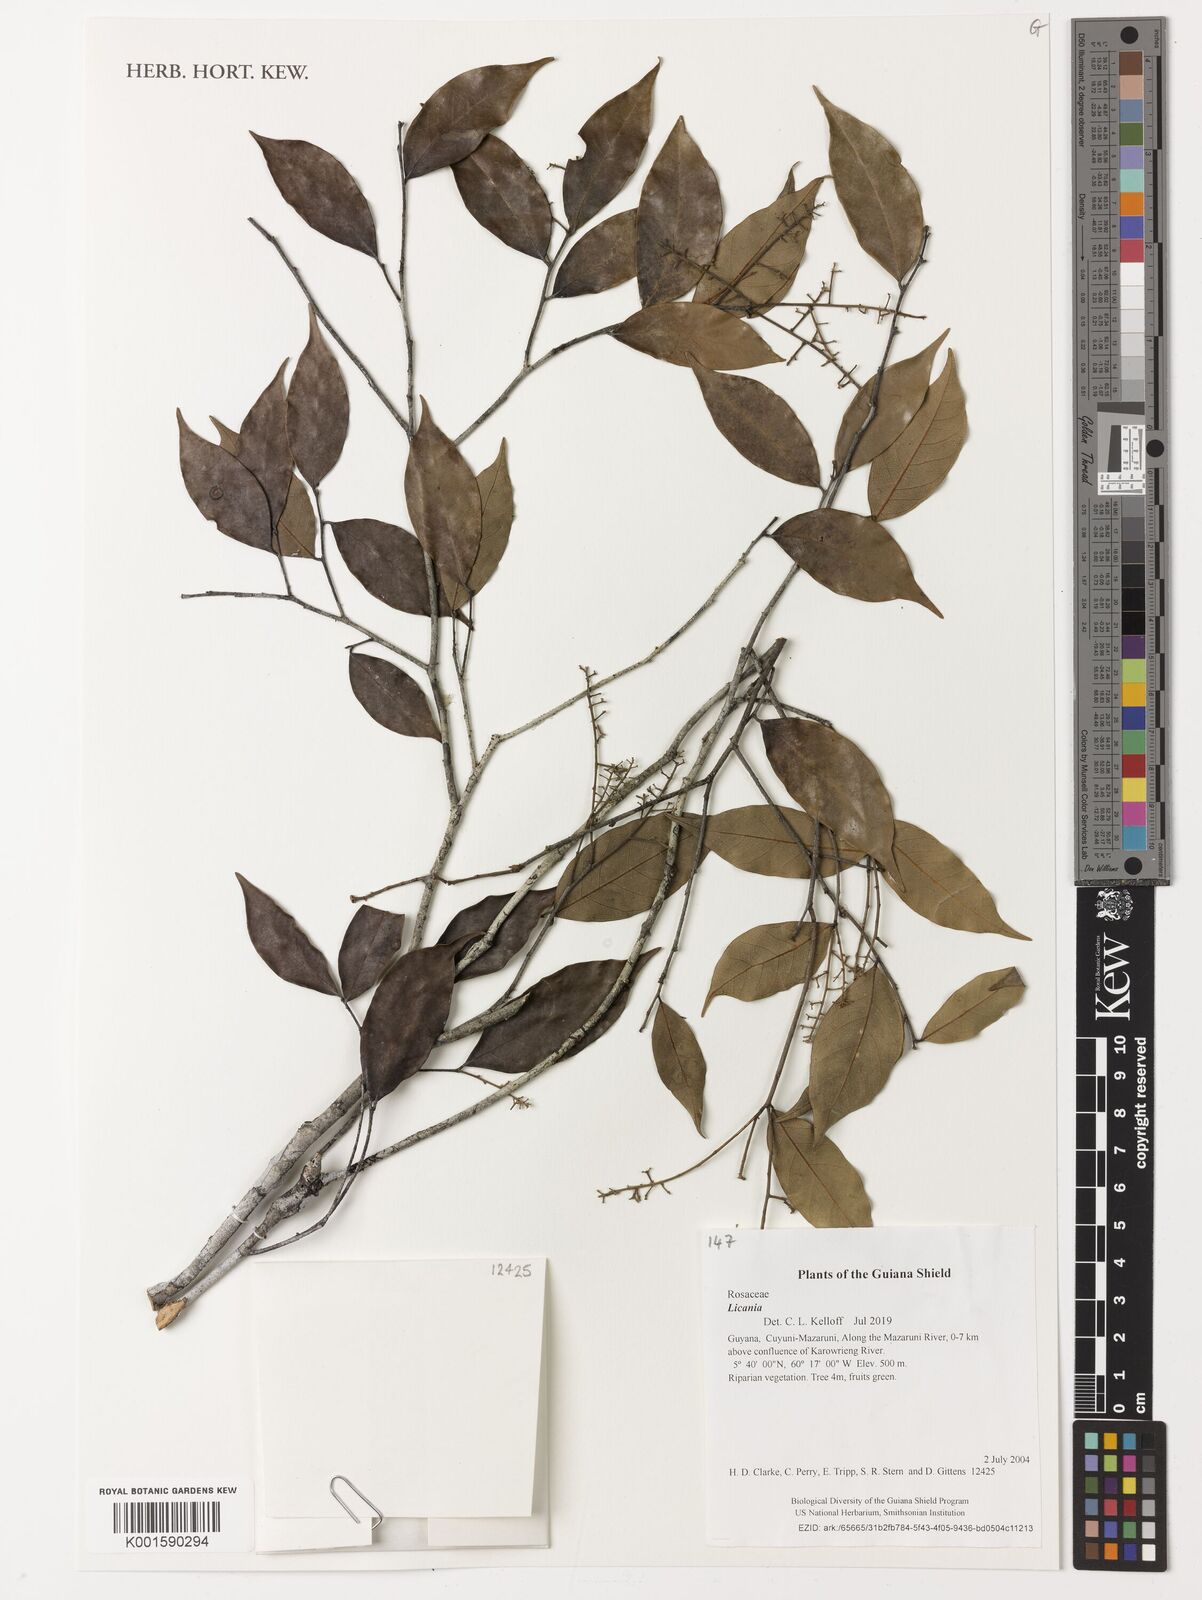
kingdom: Plantae
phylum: Tracheophyta
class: Magnoliopsida
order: Malpighiales
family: Chrysobalanaceae
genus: Licania
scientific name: Licania
